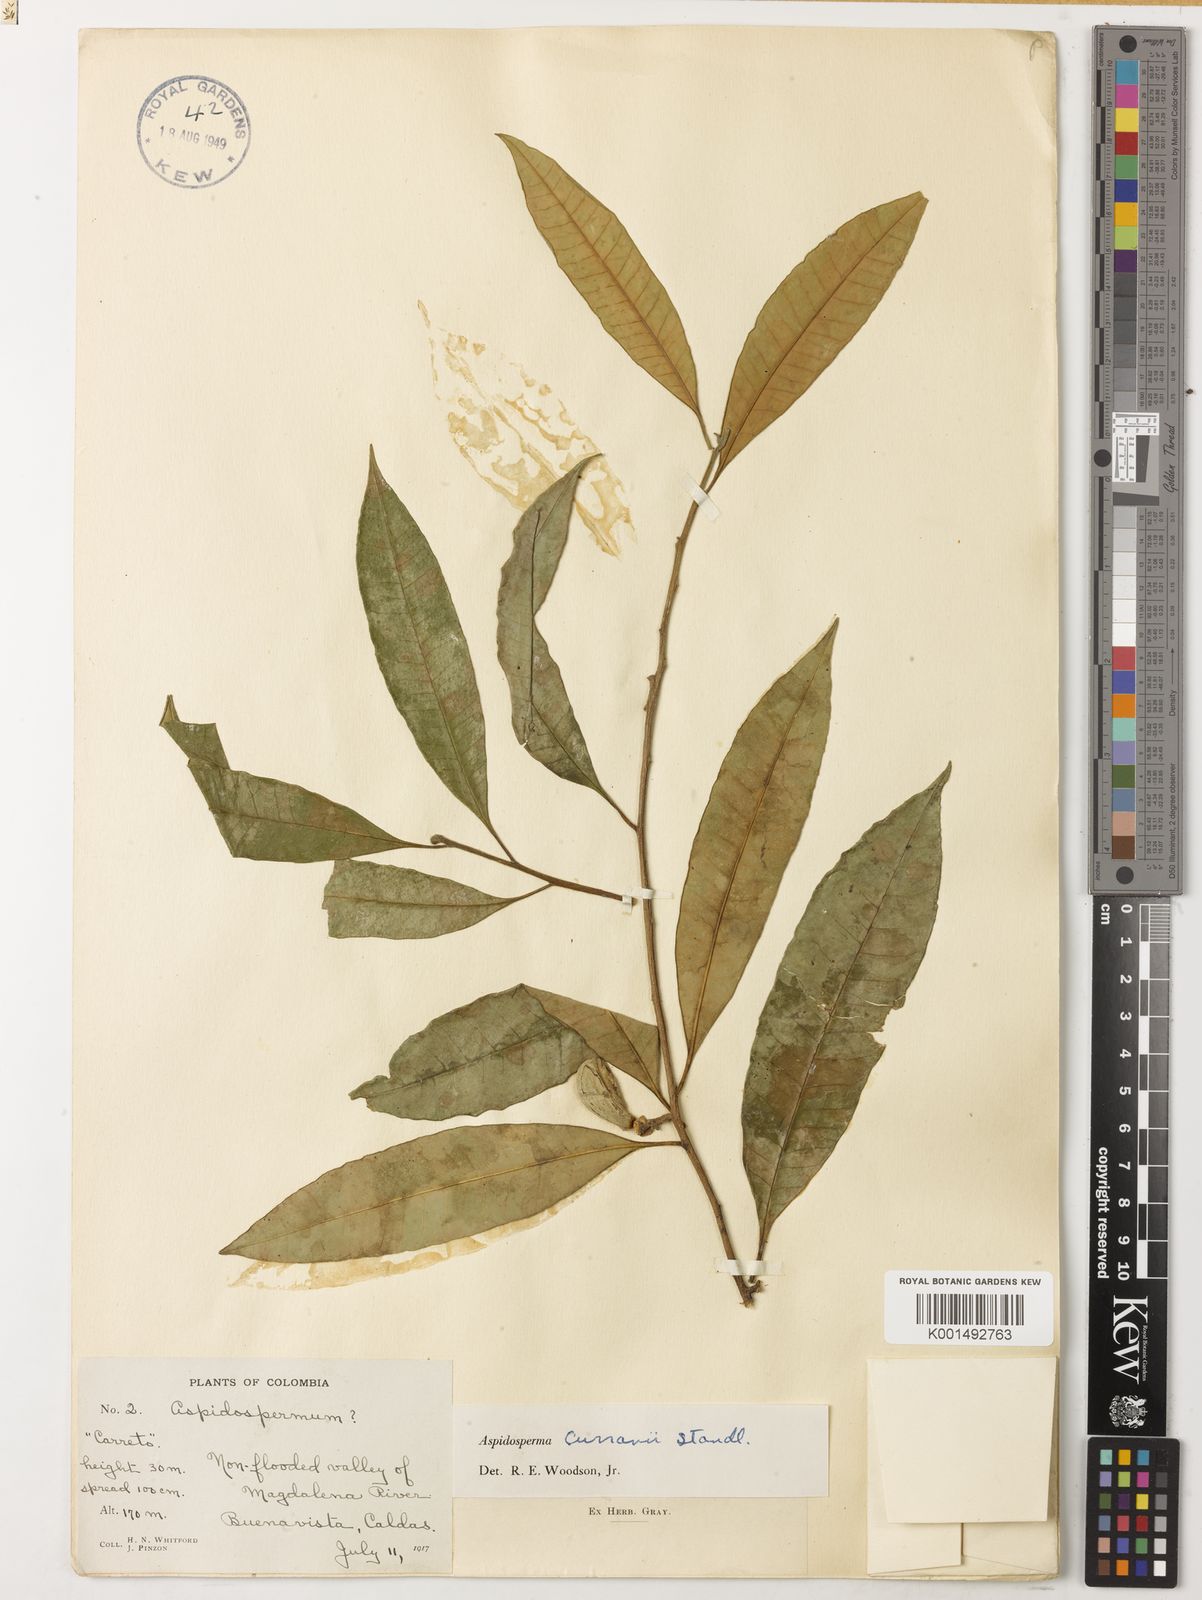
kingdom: Plantae
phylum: Tracheophyta
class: Magnoliopsida
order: Gentianales
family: Apocynaceae
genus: Aspidosperma
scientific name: Aspidosperma megalocarpon
